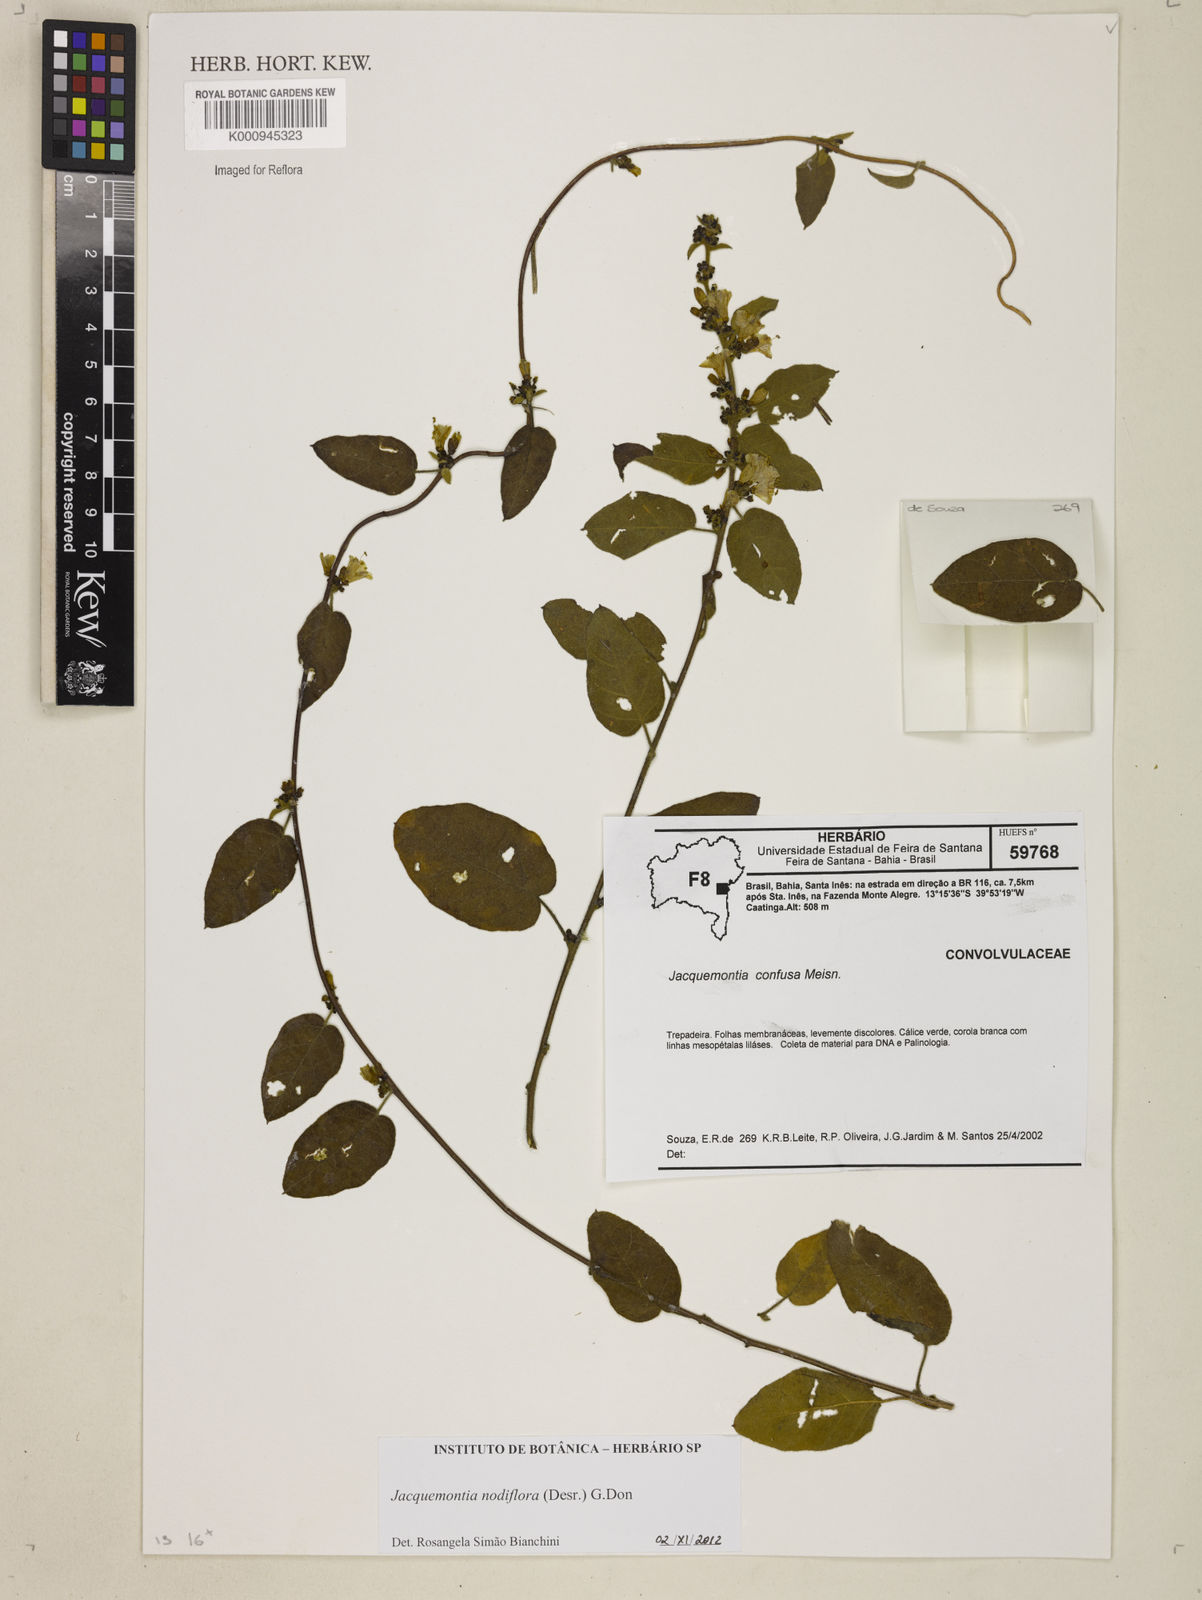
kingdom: Plantae
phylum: Tracheophyta
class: Magnoliopsida
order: Solanales
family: Convolvulaceae
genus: Jacquemontia
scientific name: Jacquemontia nodiflora
